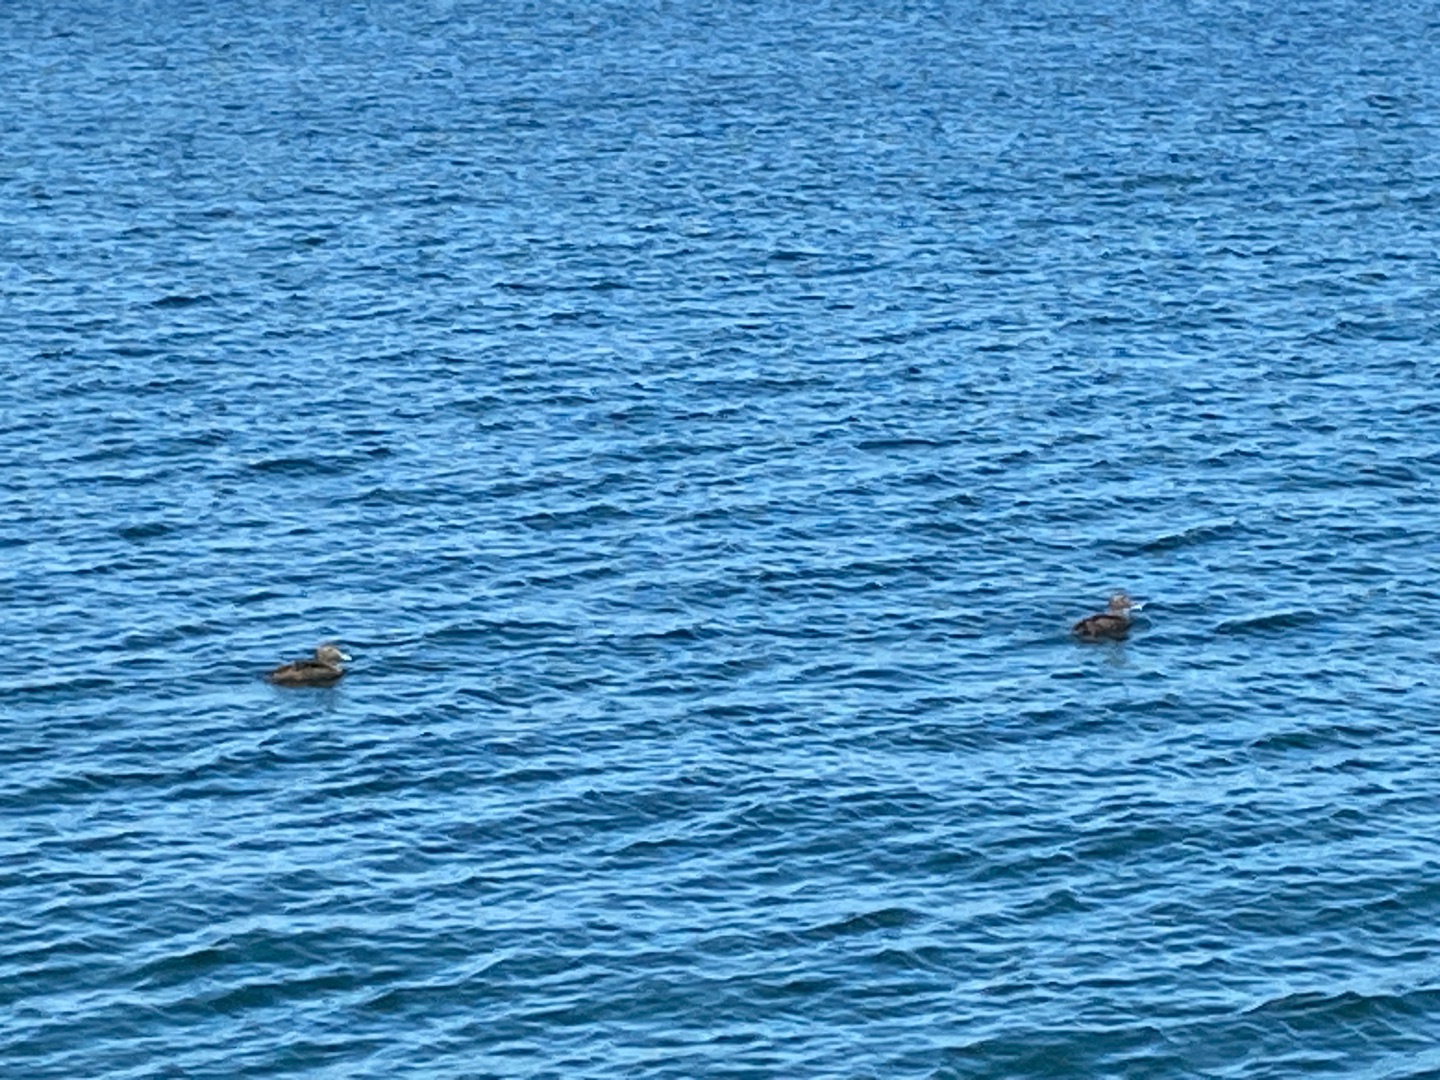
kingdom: Animalia
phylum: Chordata
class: Aves
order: Anseriformes
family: Anatidae
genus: Somateria
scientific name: Somateria mollissima
